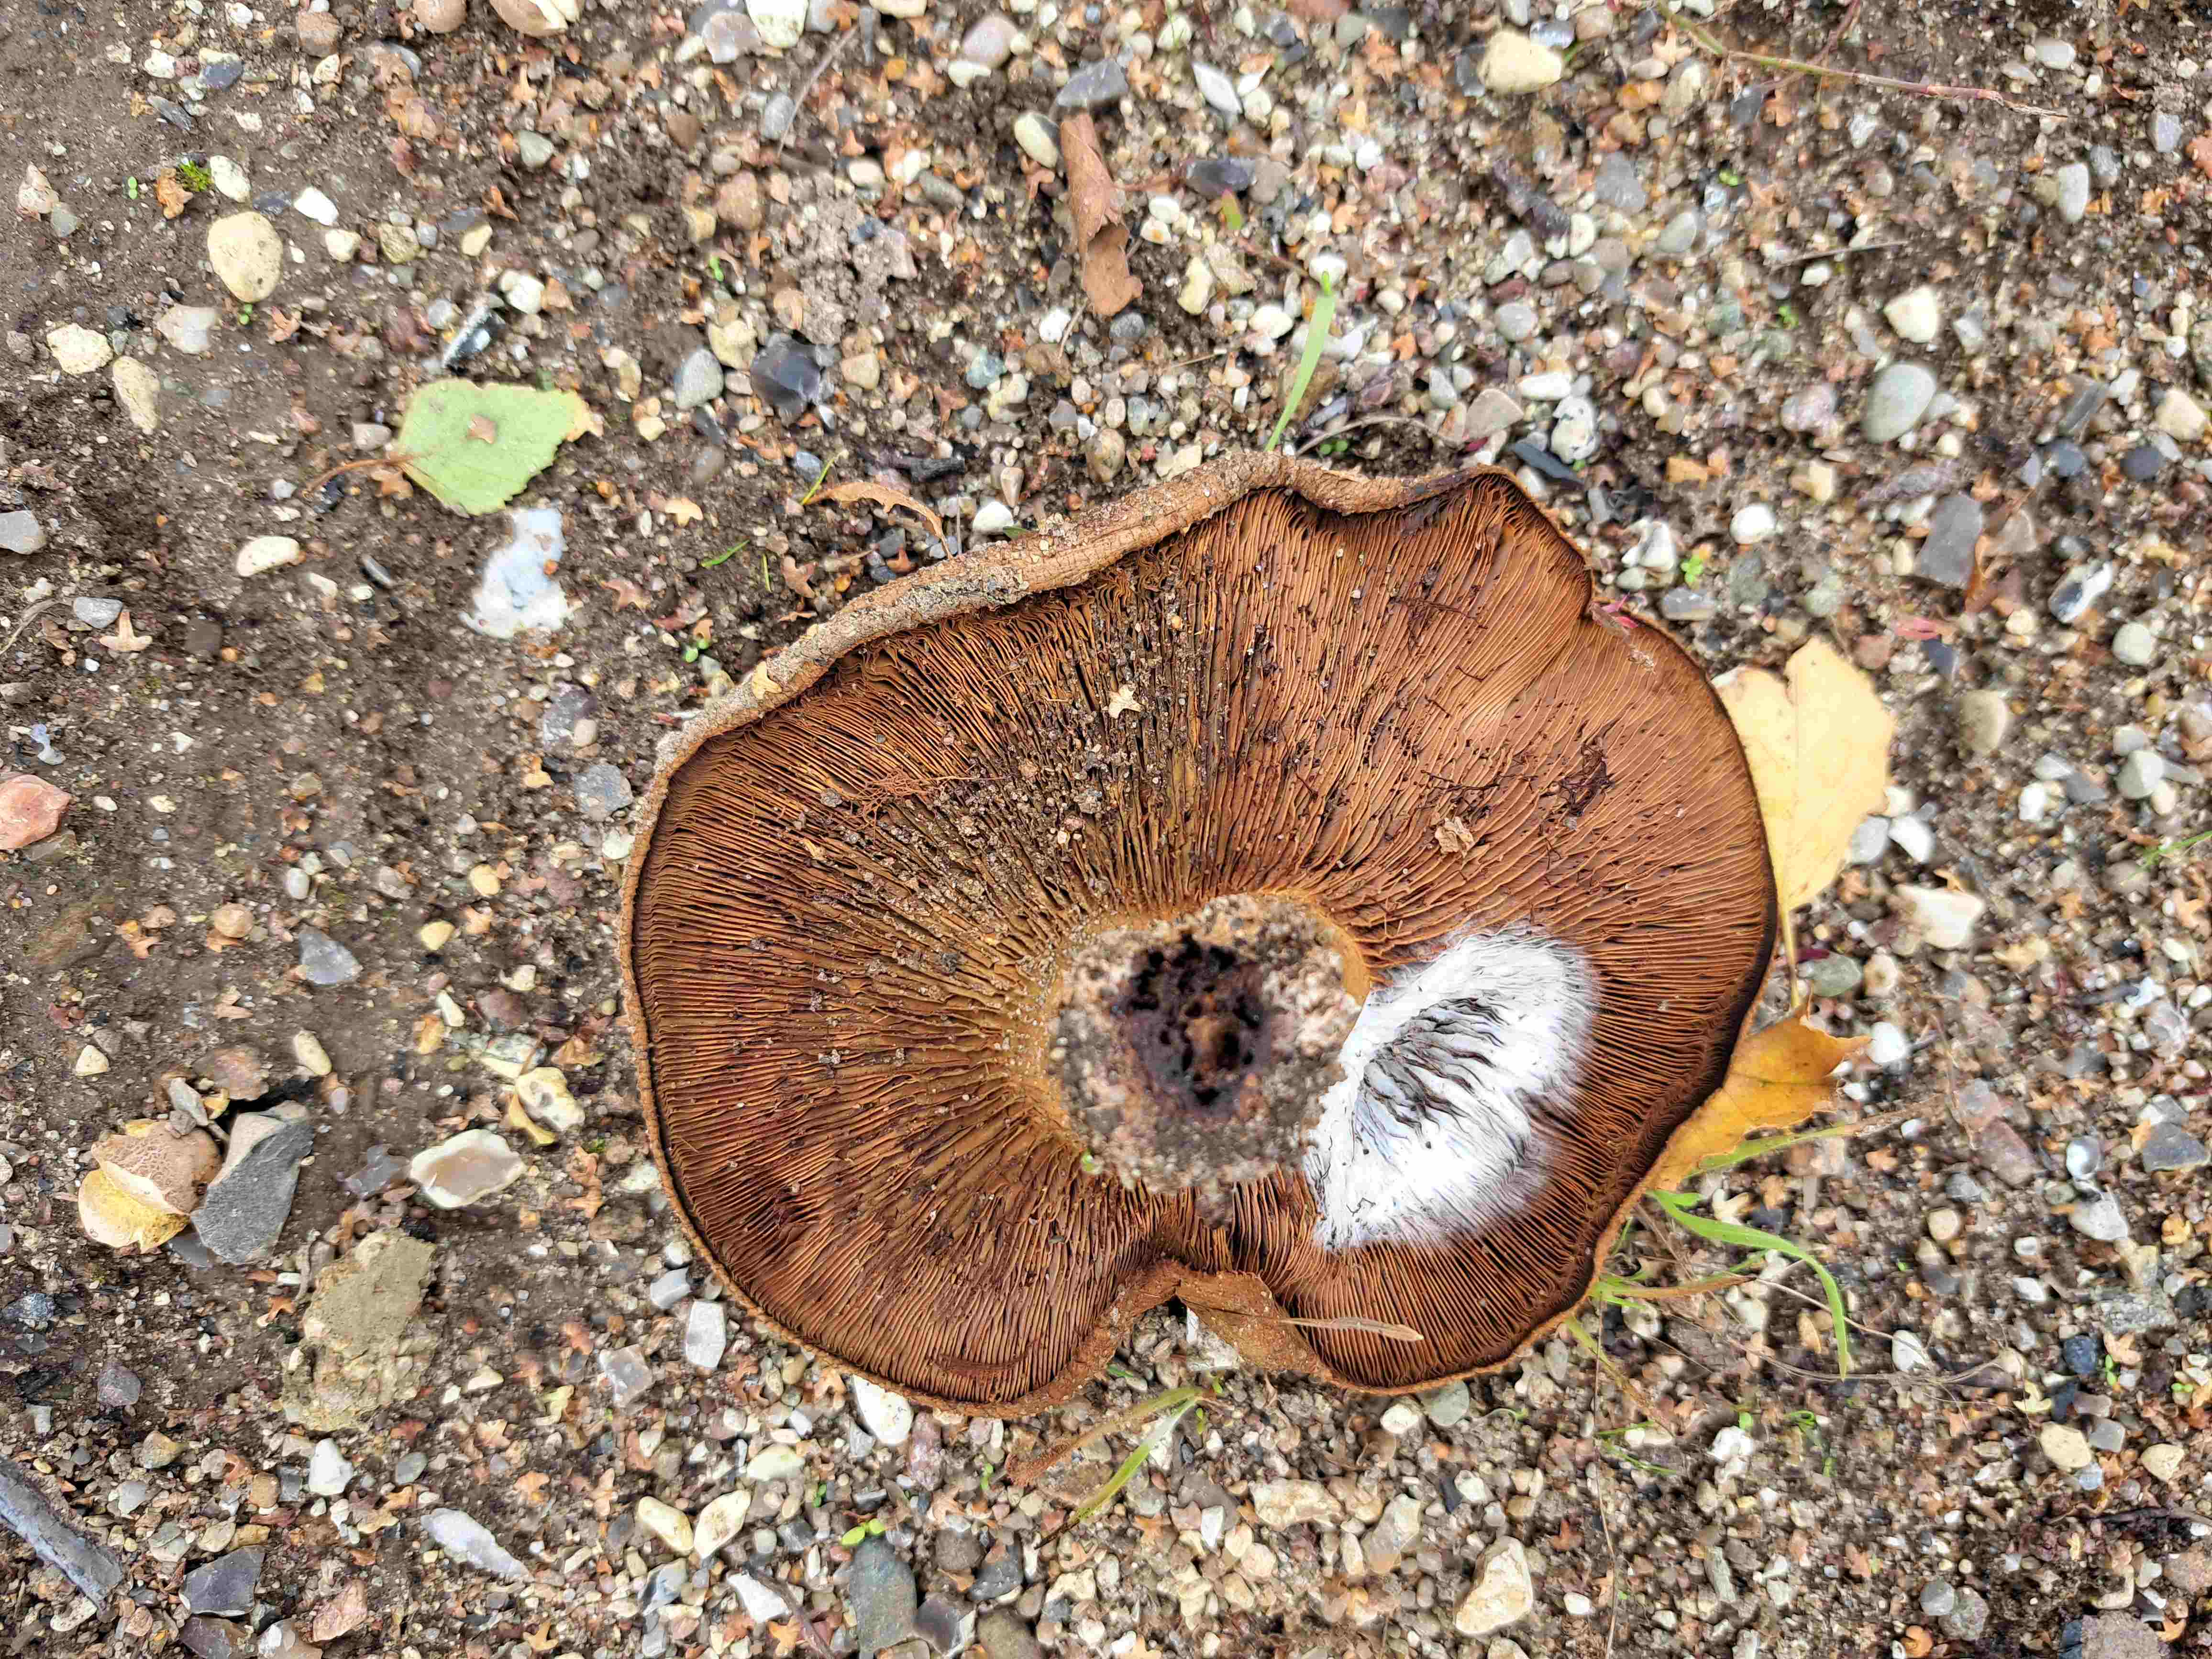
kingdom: Fungi
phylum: Basidiomycota
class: Agaricomycetes
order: Boletales
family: Paxillaceae
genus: Paxillus
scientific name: Paxillus involutus
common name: almindelig netbladhat
